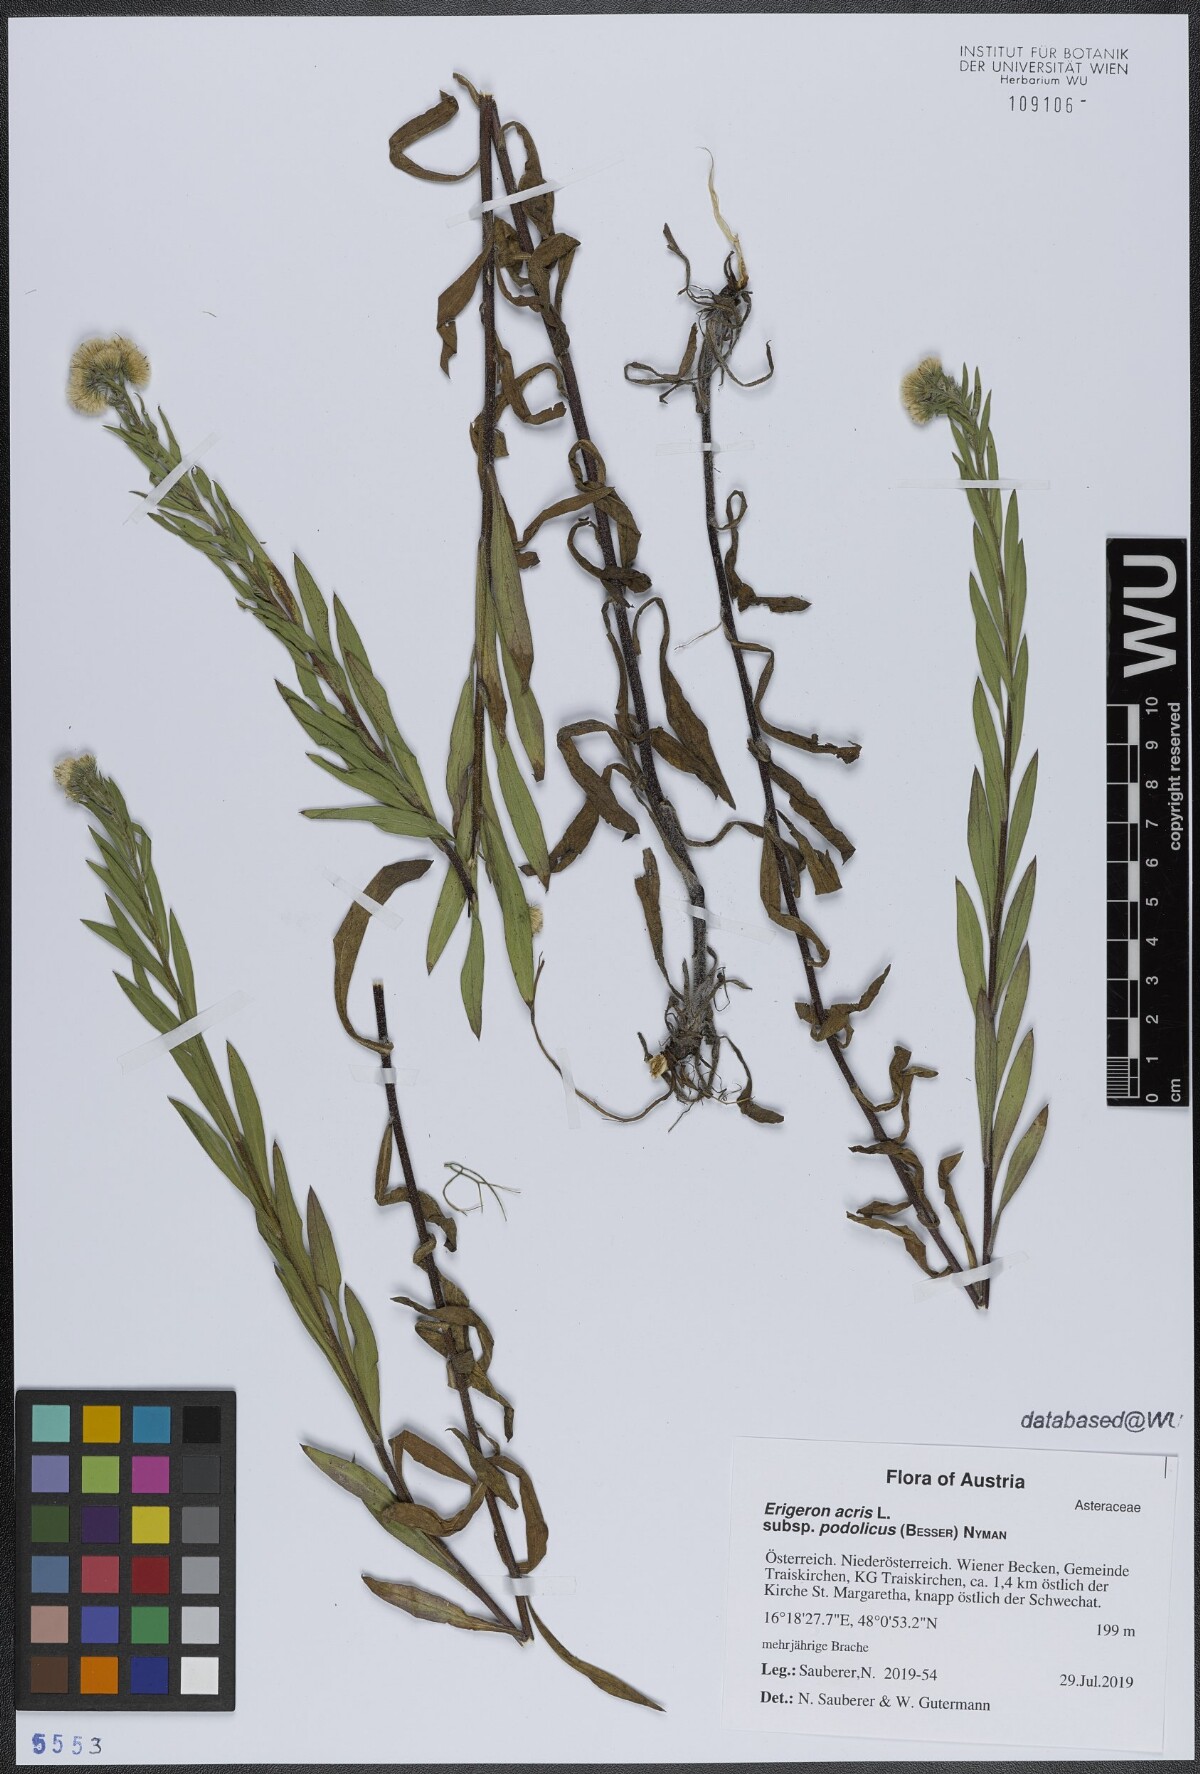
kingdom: Plantae
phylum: Tracheophyta
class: Magnoliopsida
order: Asterales
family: Asteraceae
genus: Erigeron
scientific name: Erigeron podolicus
